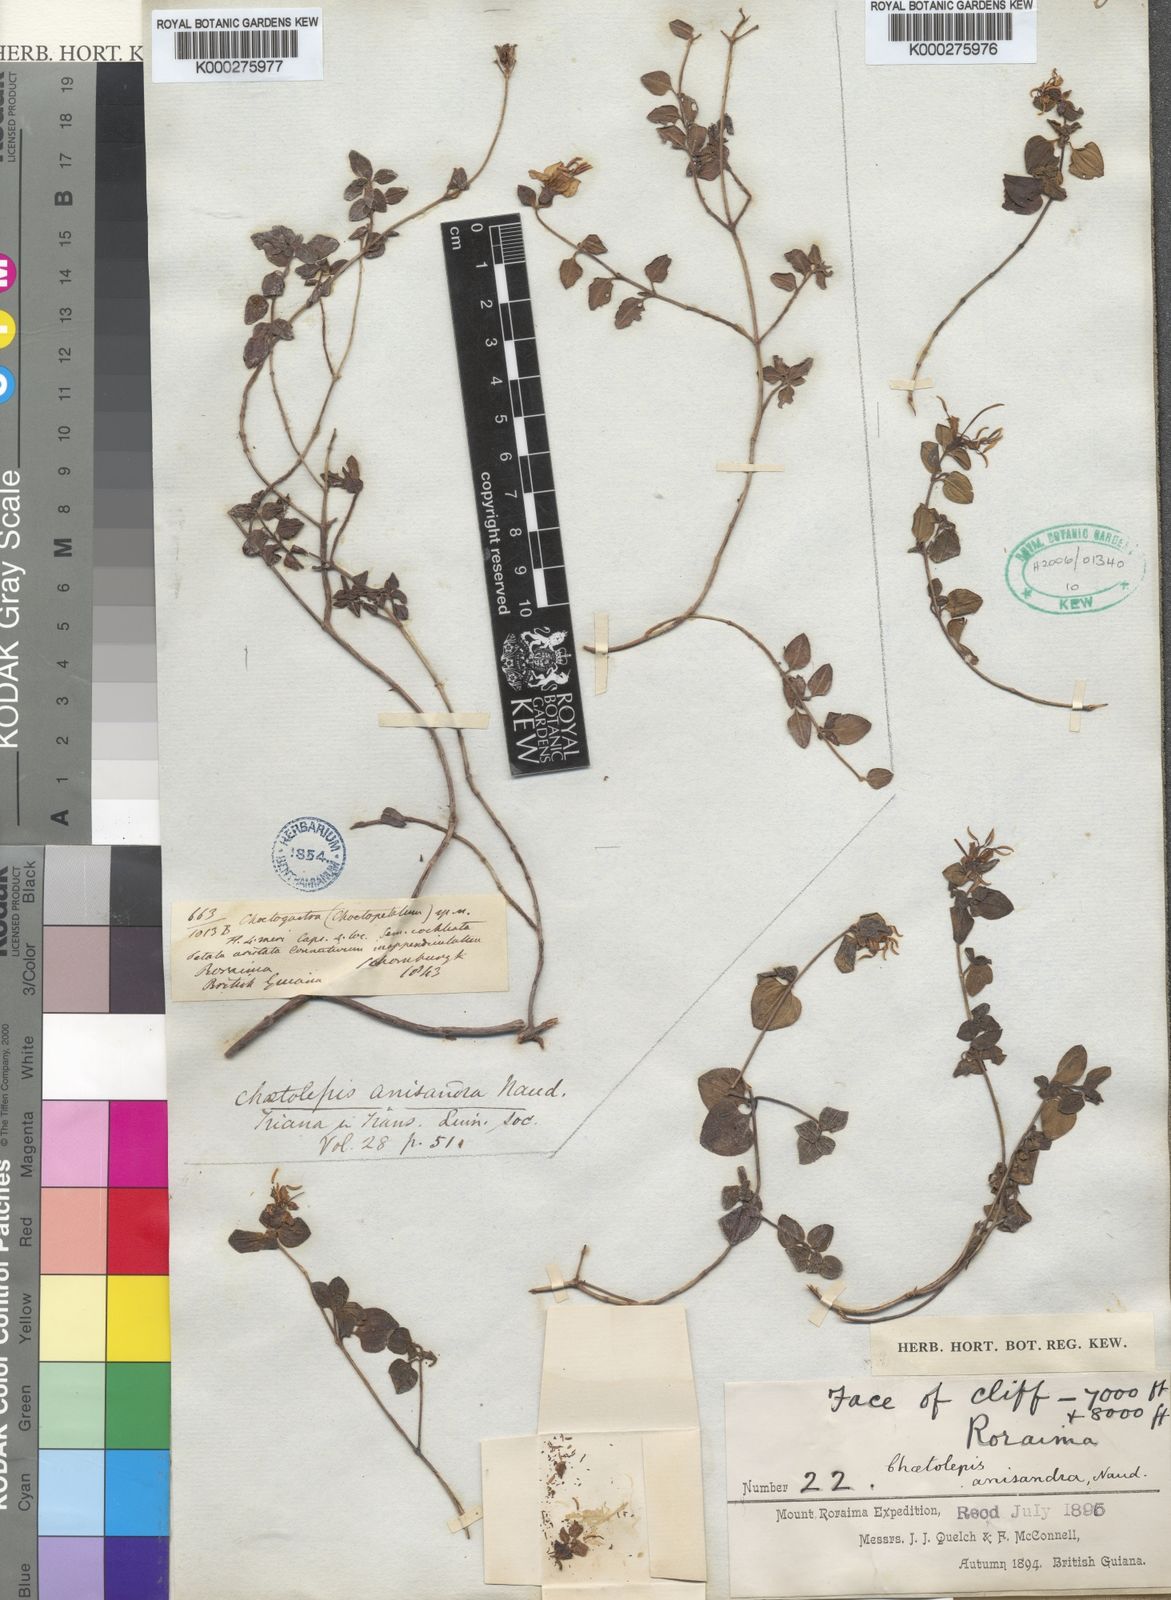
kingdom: Plantae
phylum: Tracheophyta
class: Magnoliopsida
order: Myrtales
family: Melastomataceae
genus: Chaetolepis
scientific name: Chaetolepis anisandra
